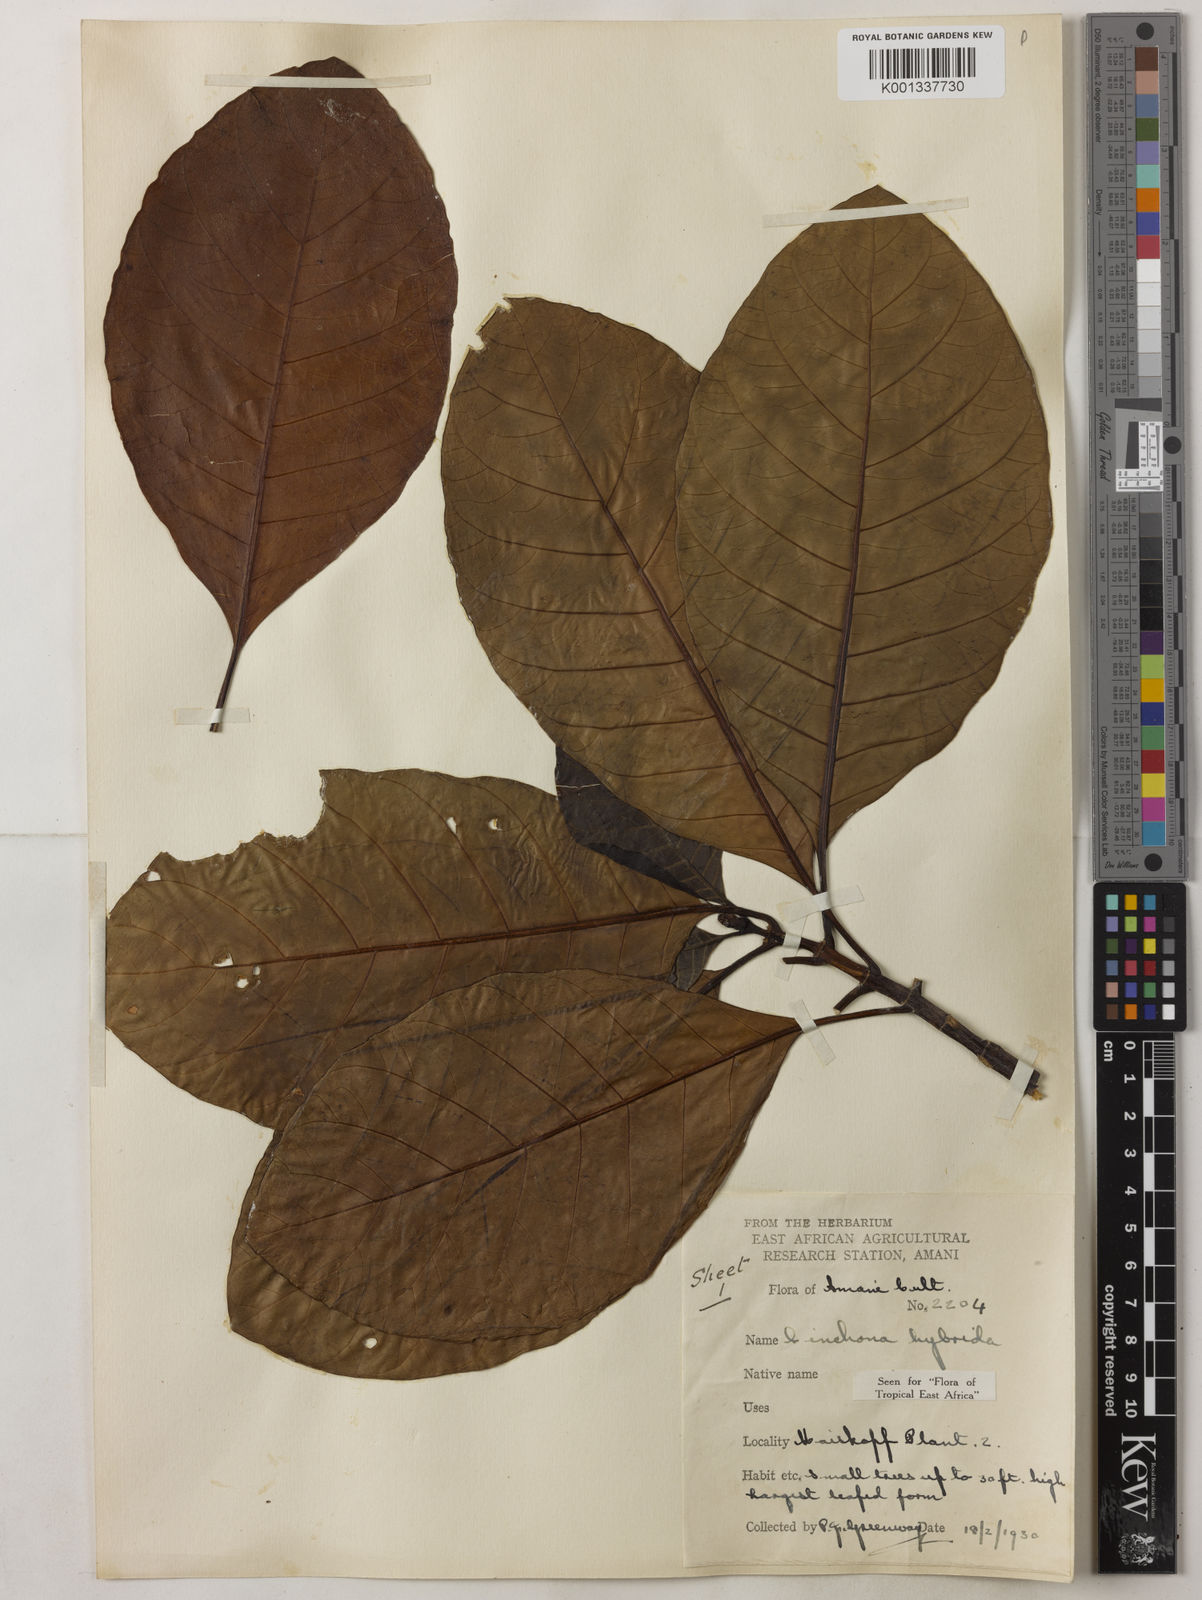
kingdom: Plantae
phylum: Tracheophyta
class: Magnoliopsida
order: Gentianales
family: Rubiaceae
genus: Cinchona
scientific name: Cinchona
